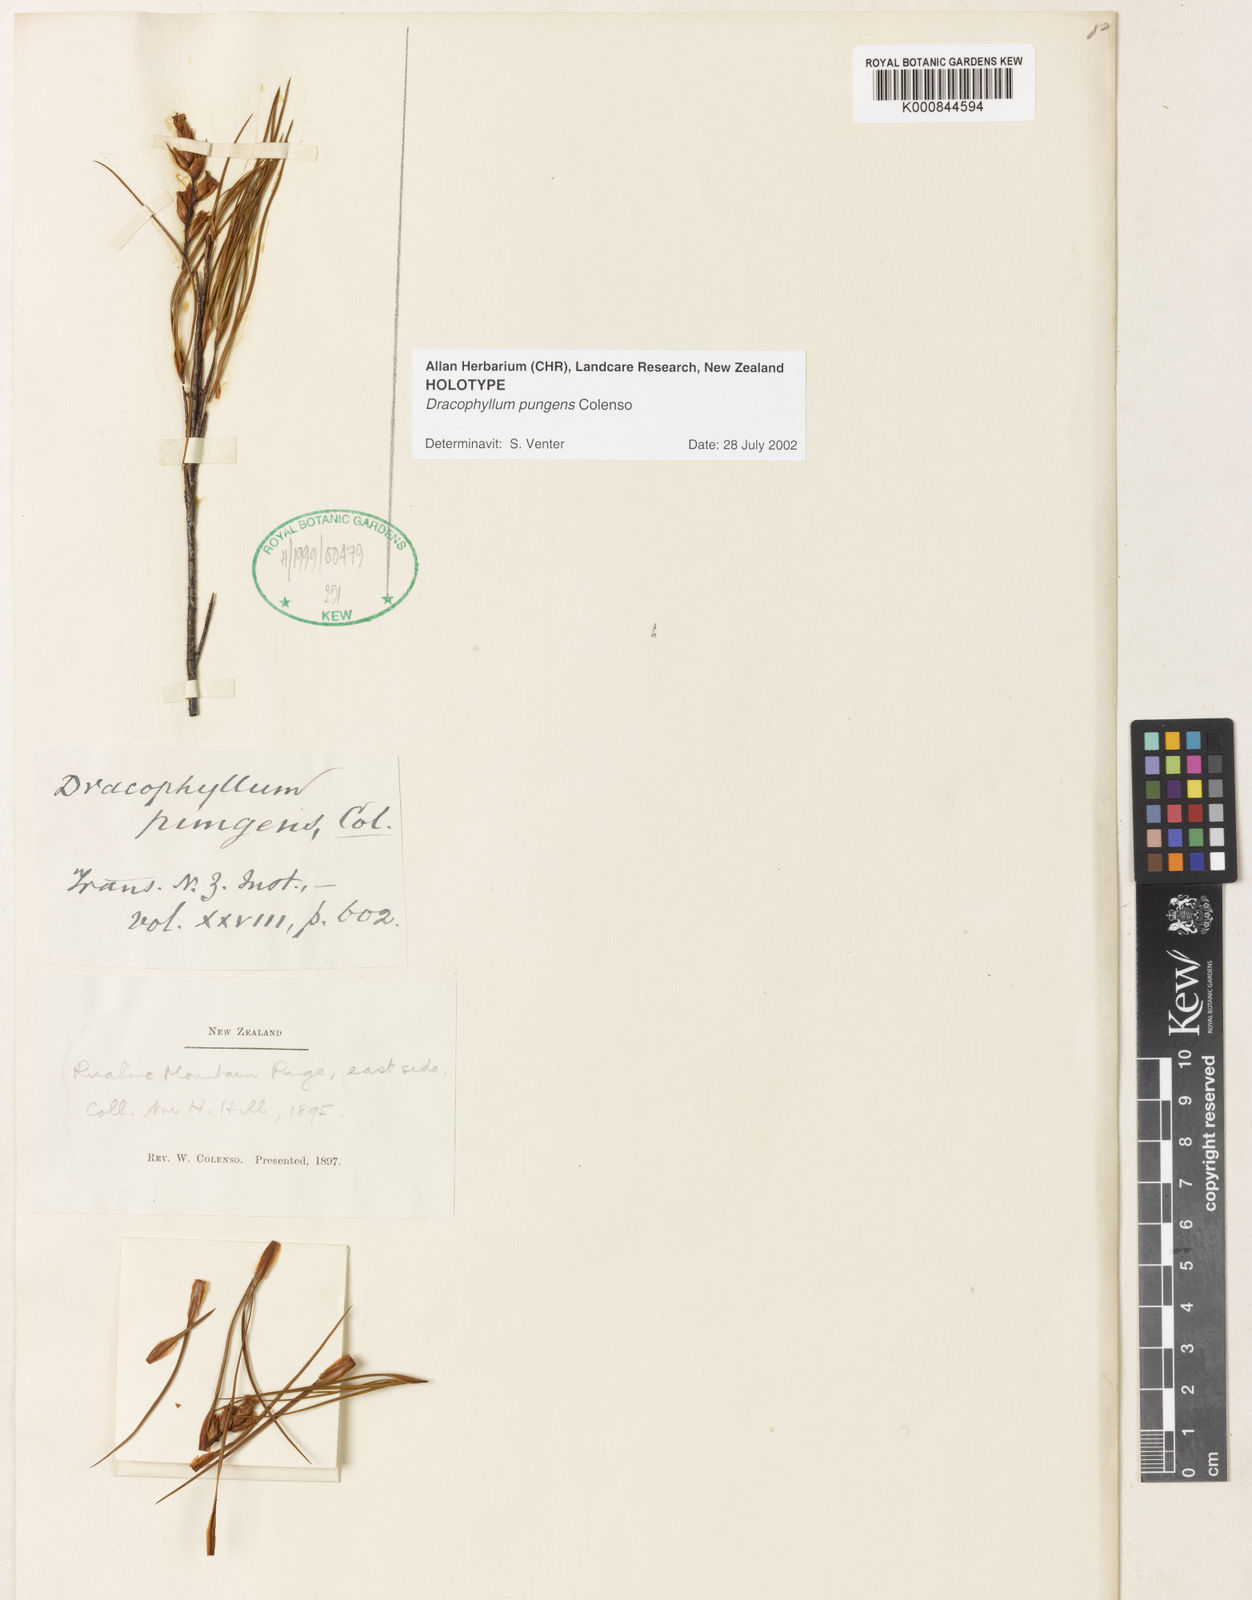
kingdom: Plantae
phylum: Tracheophyta
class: Magnoliopsida
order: Ericales
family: Ericaceae
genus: Dracophyllum
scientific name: Dracophyllum filifolium
